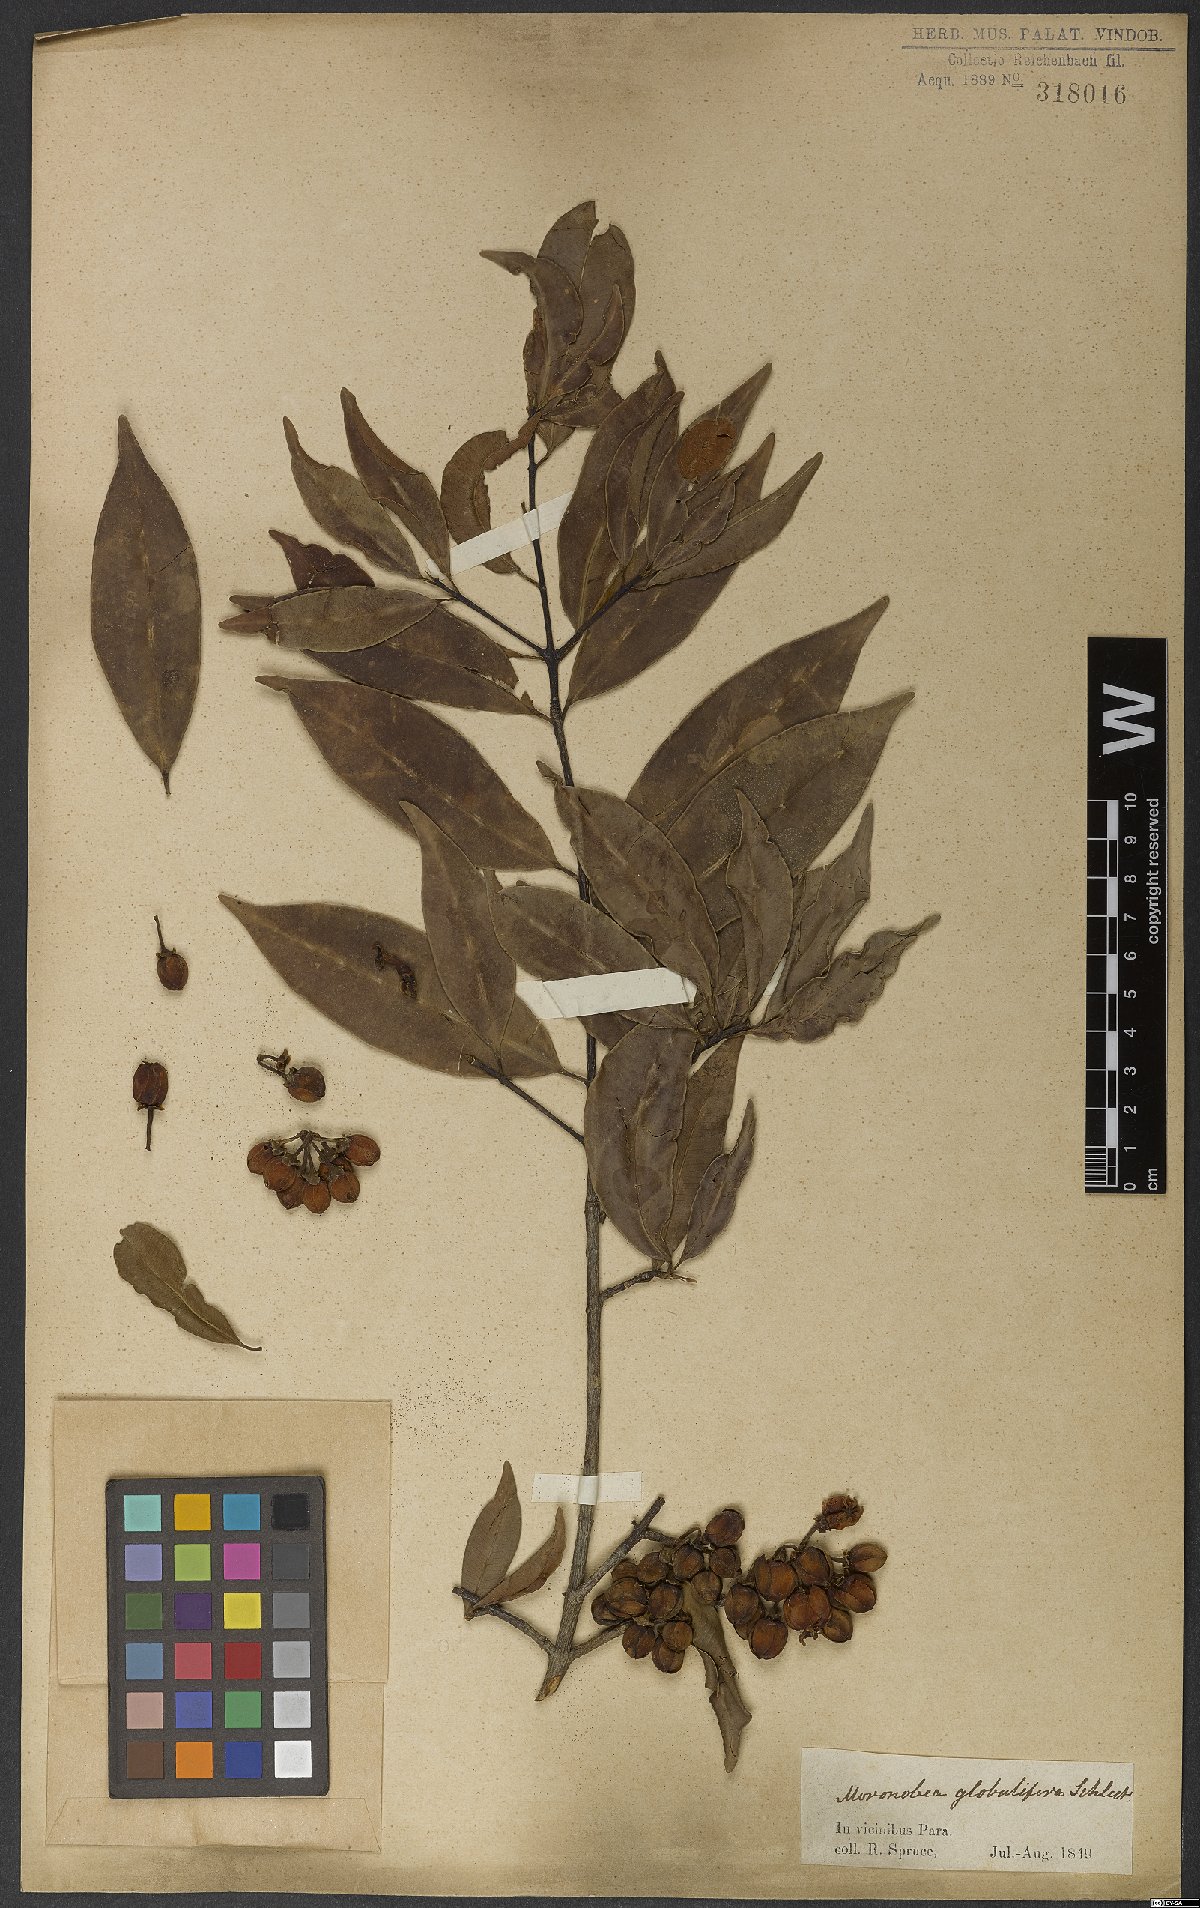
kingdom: Plantae
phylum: Tracheophyta
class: Magnoliopsida
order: Malpighiales
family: Clusiaceae
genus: Symphonia
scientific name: Symphonia globulifera
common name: Boarwood
